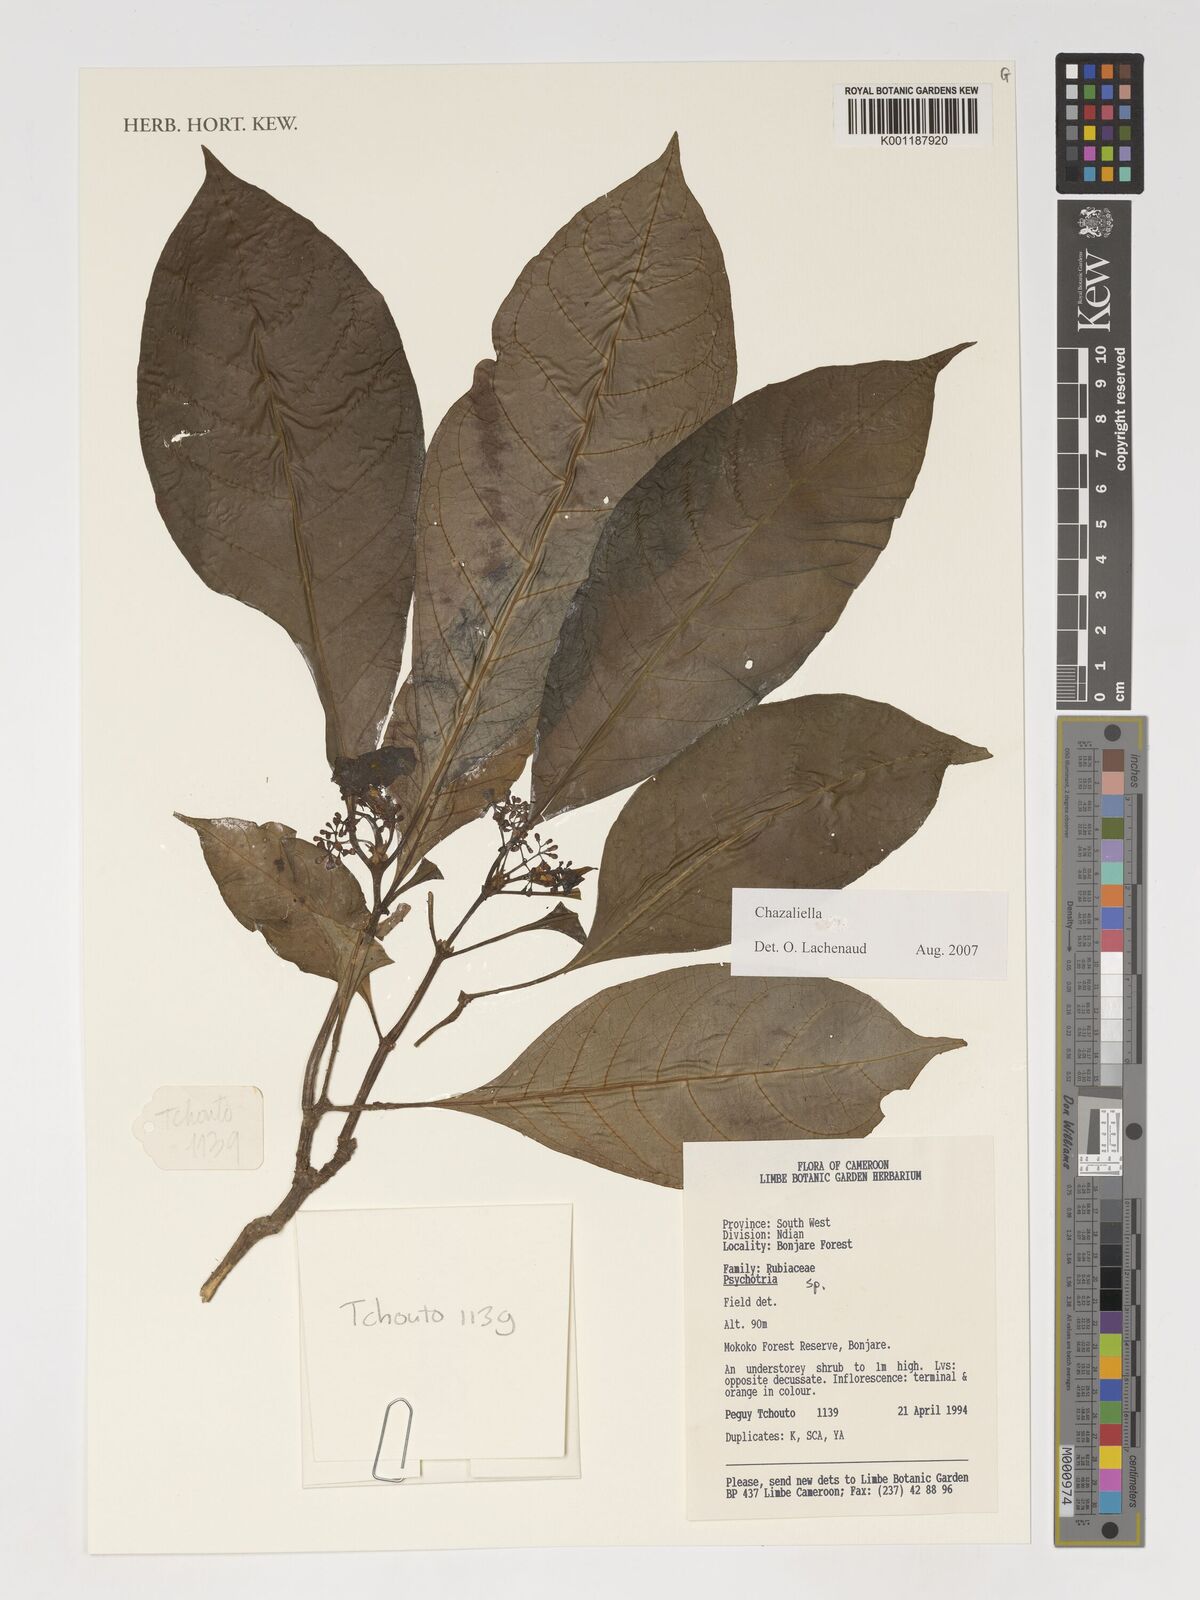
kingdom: Plantae
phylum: Tracheophyta
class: Magnoliopsida
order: Gentianales
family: Rubiaceae
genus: Eumachia
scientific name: Eumachia
